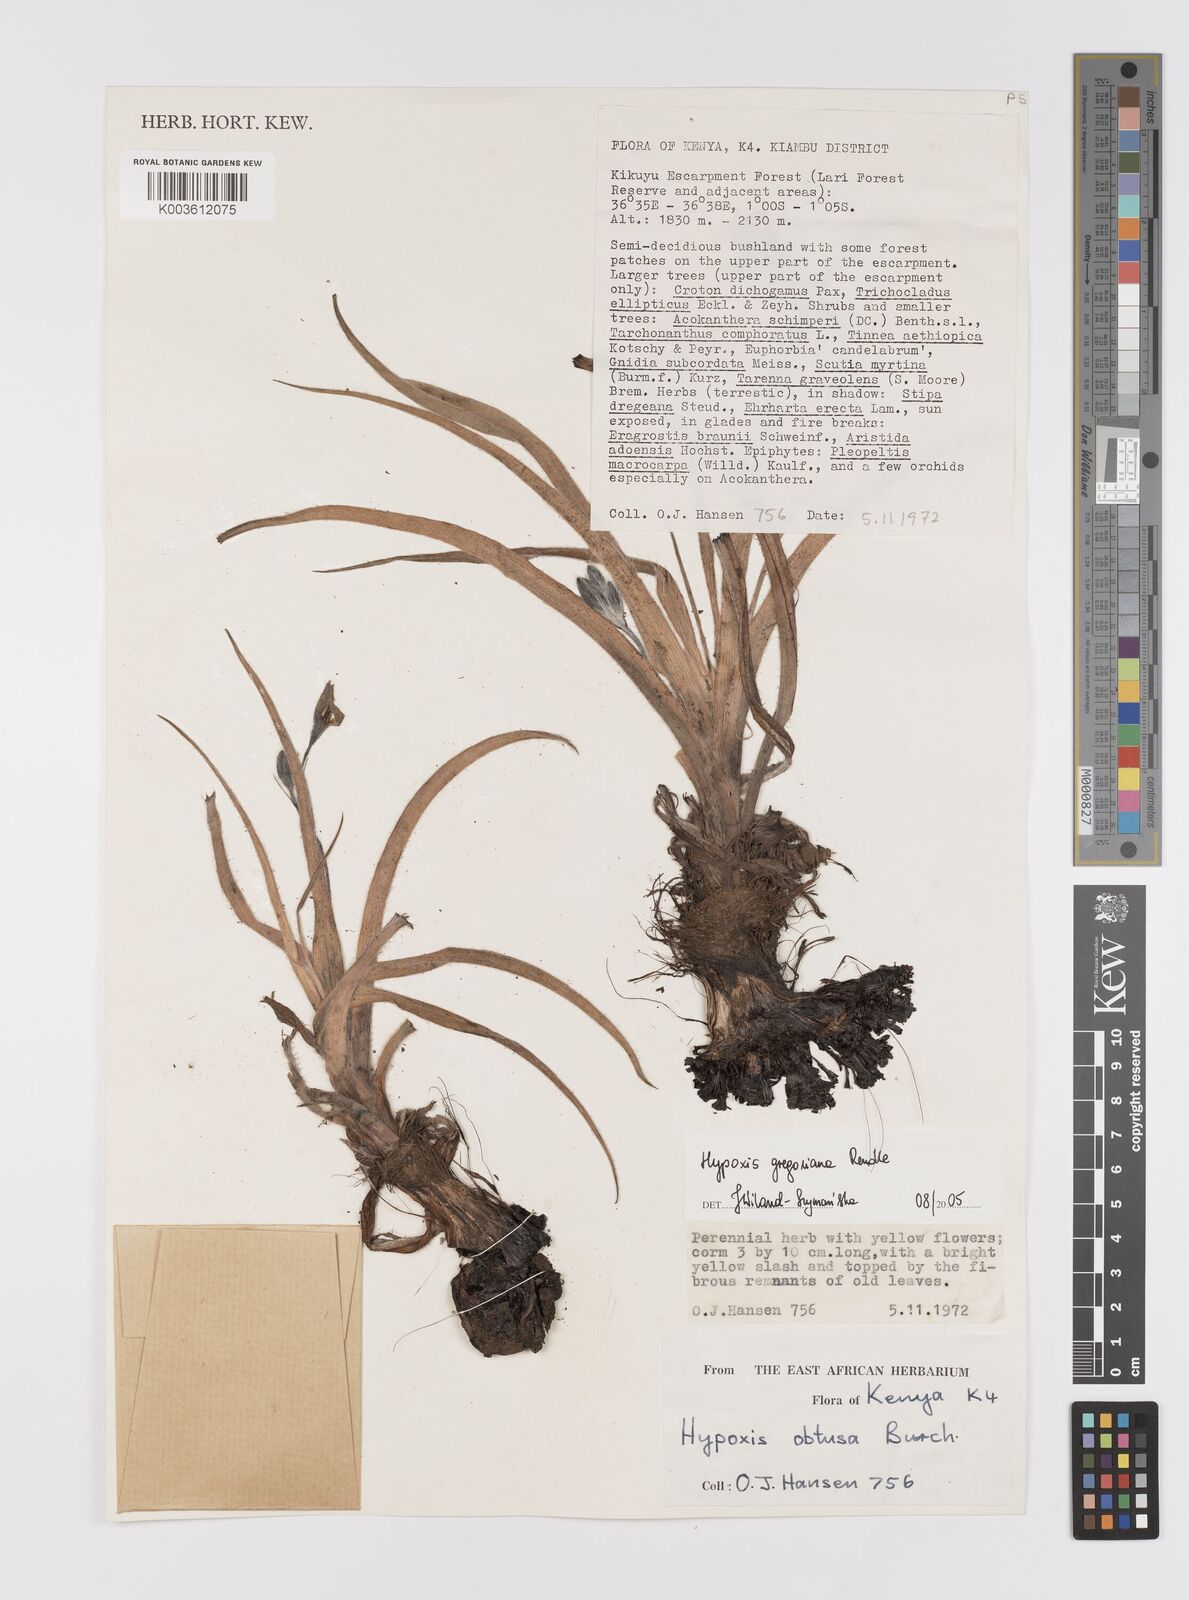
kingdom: Plantae
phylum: Tracheophyta
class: Liliopsida
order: Asparagales
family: Hypoxidaceae
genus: Hypoxis
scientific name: Hypoxis gregoriana
